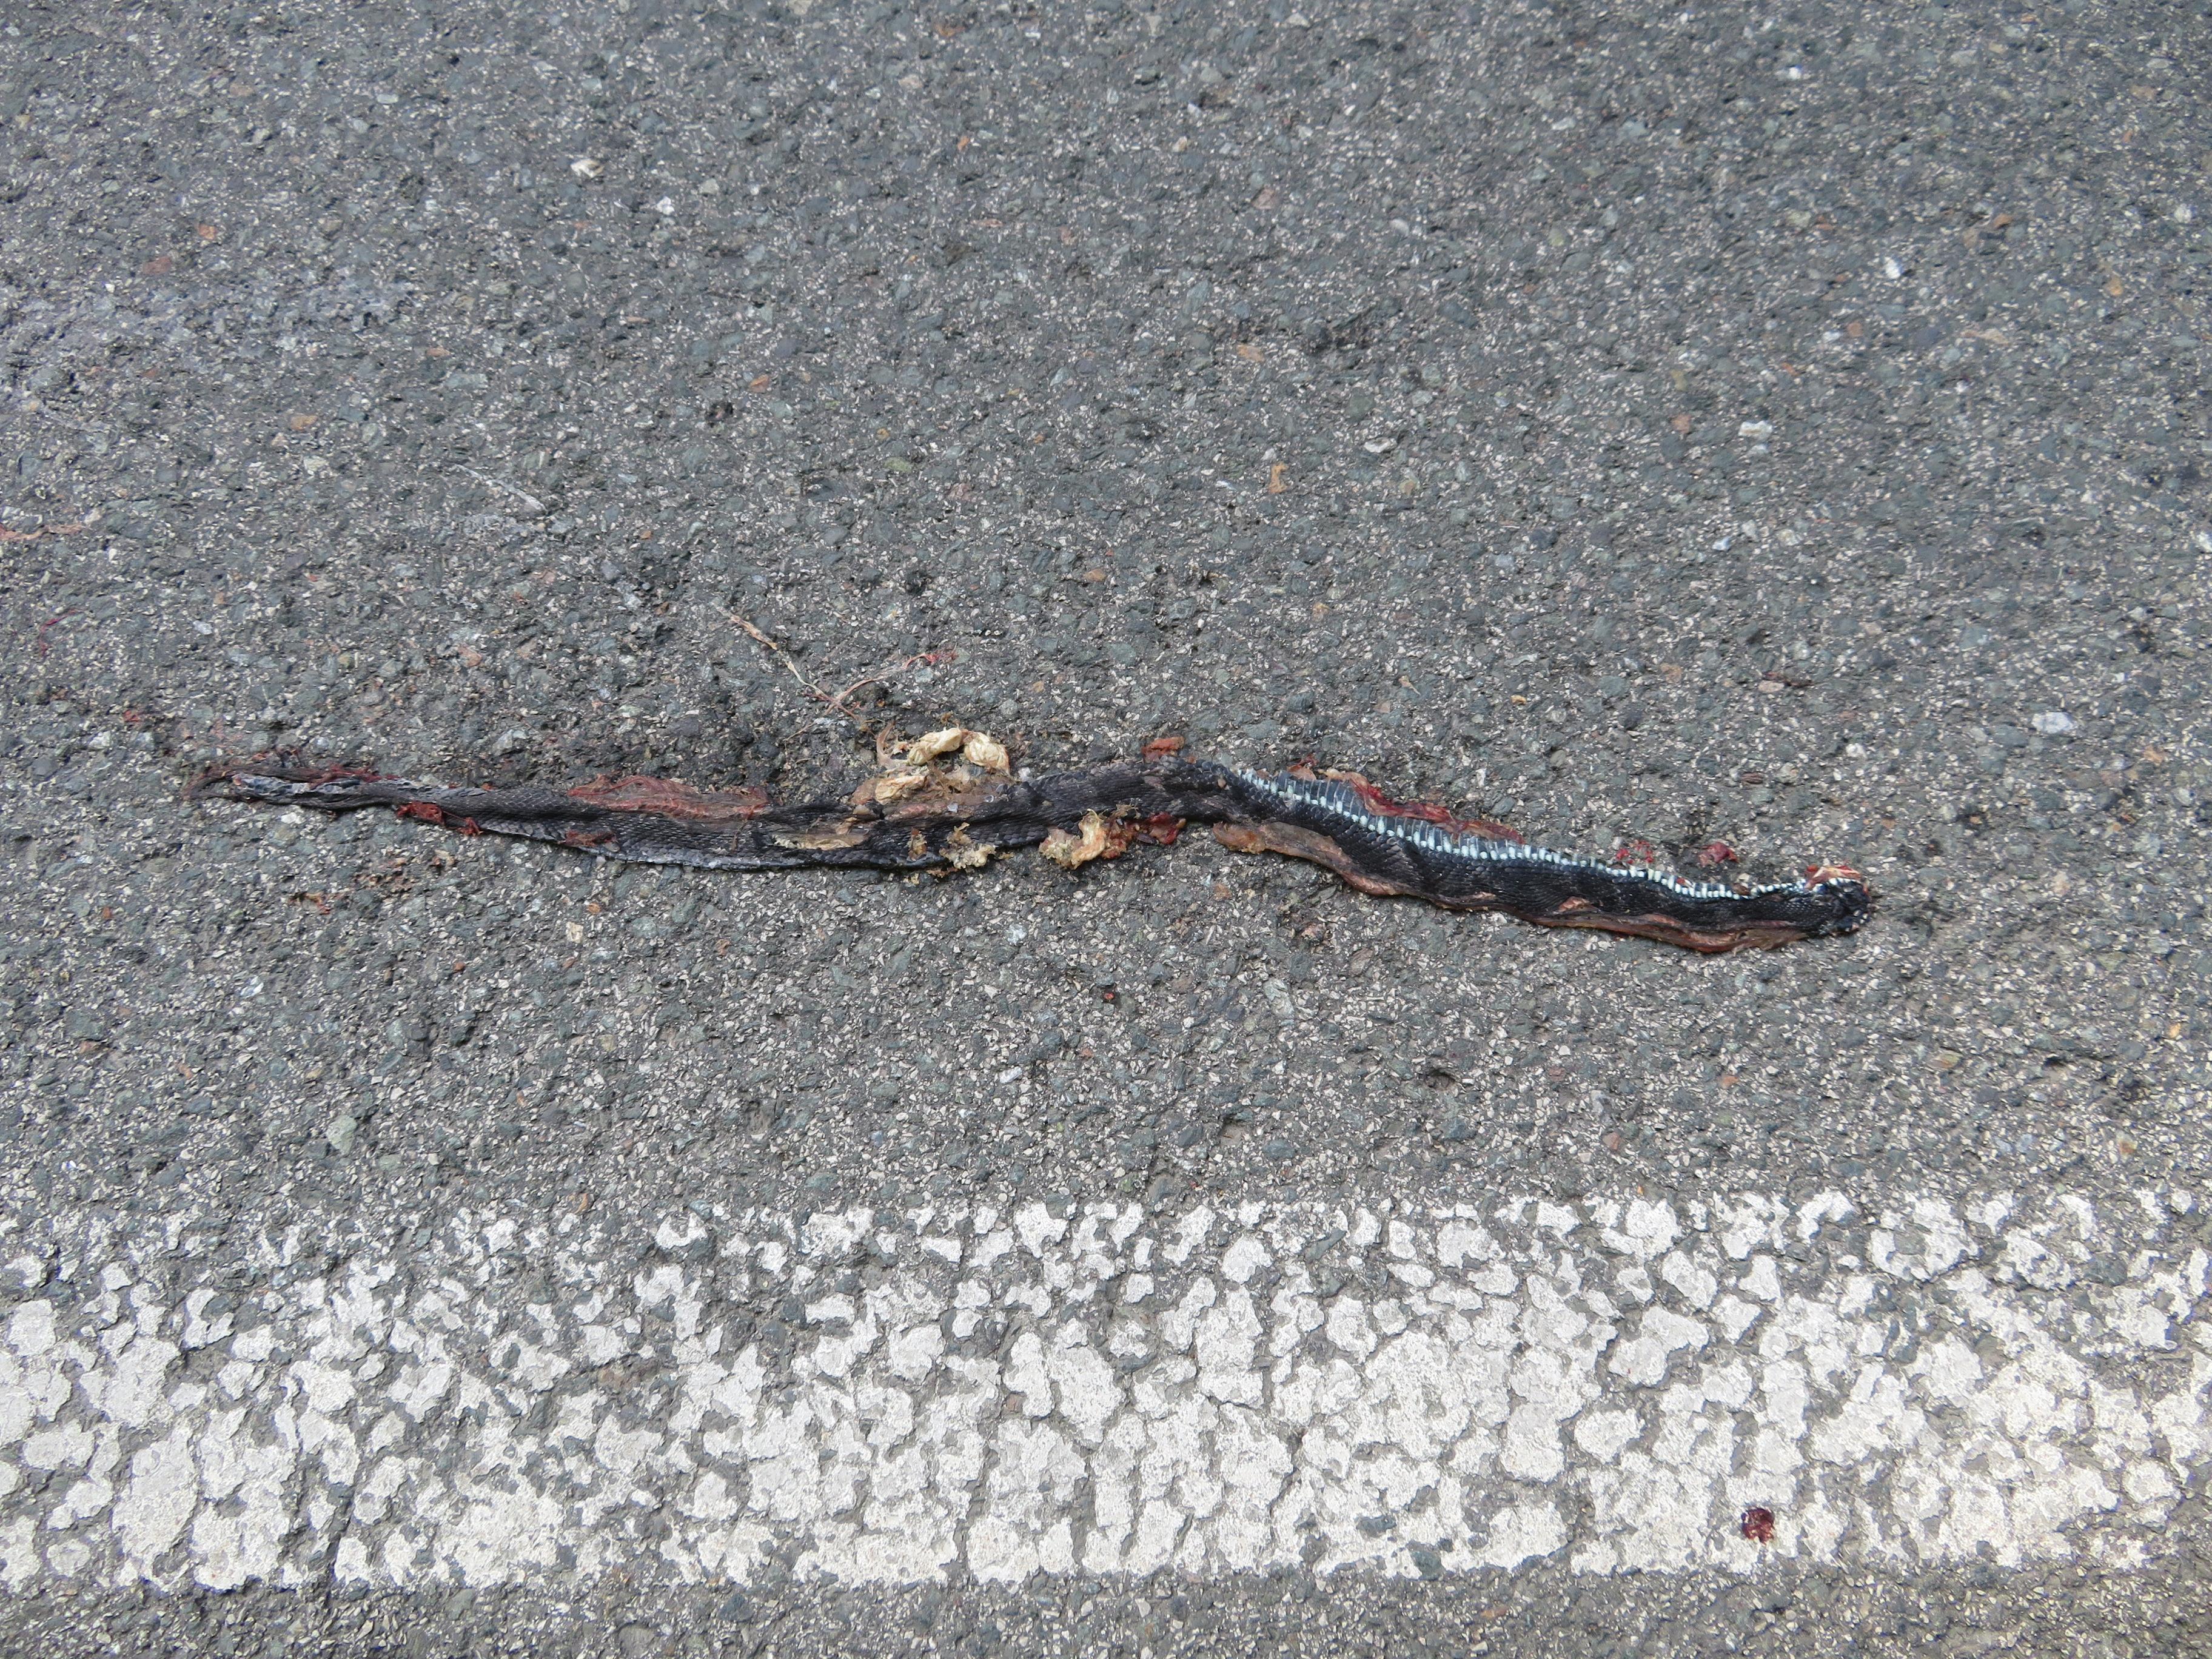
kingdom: Animalia
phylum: Chordata
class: Squamata
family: Colubridae
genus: Natrix
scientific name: Natrix natrix
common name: Grass snake
